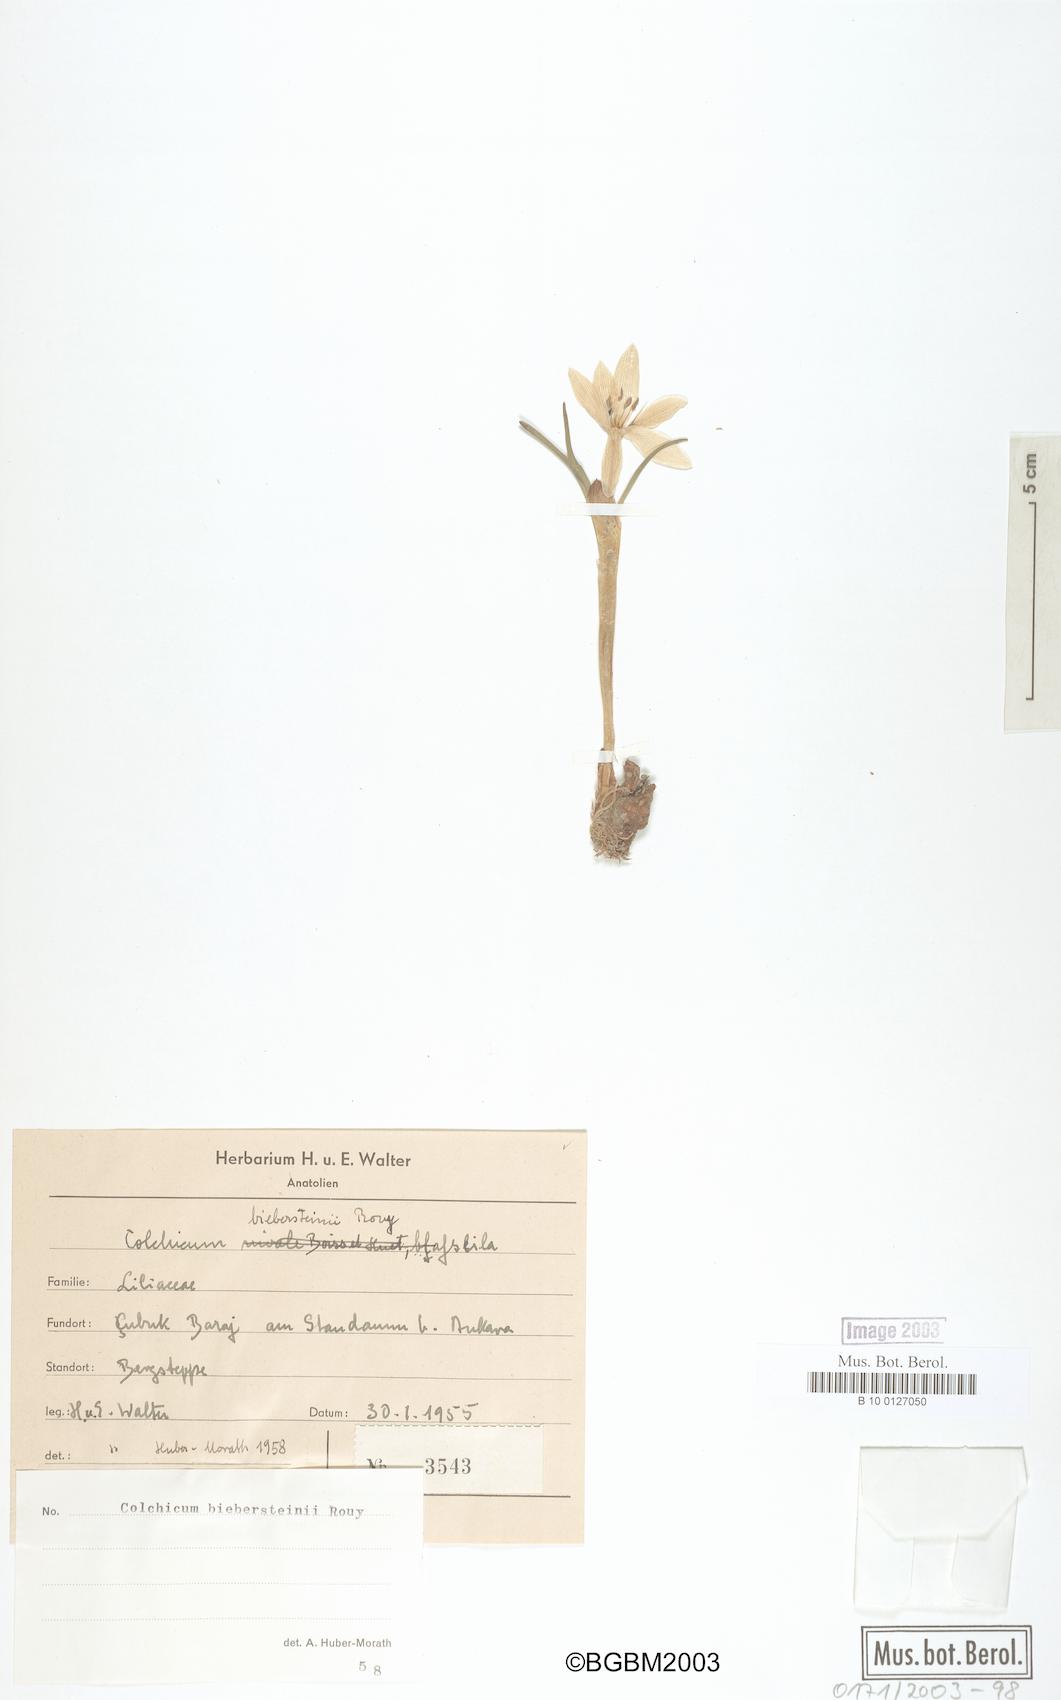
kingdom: Plantae
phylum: Tracheophyta
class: Liliopsida
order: Liliales
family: Colchicaceae
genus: Colchicum
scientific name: Colchicum triphyllum
